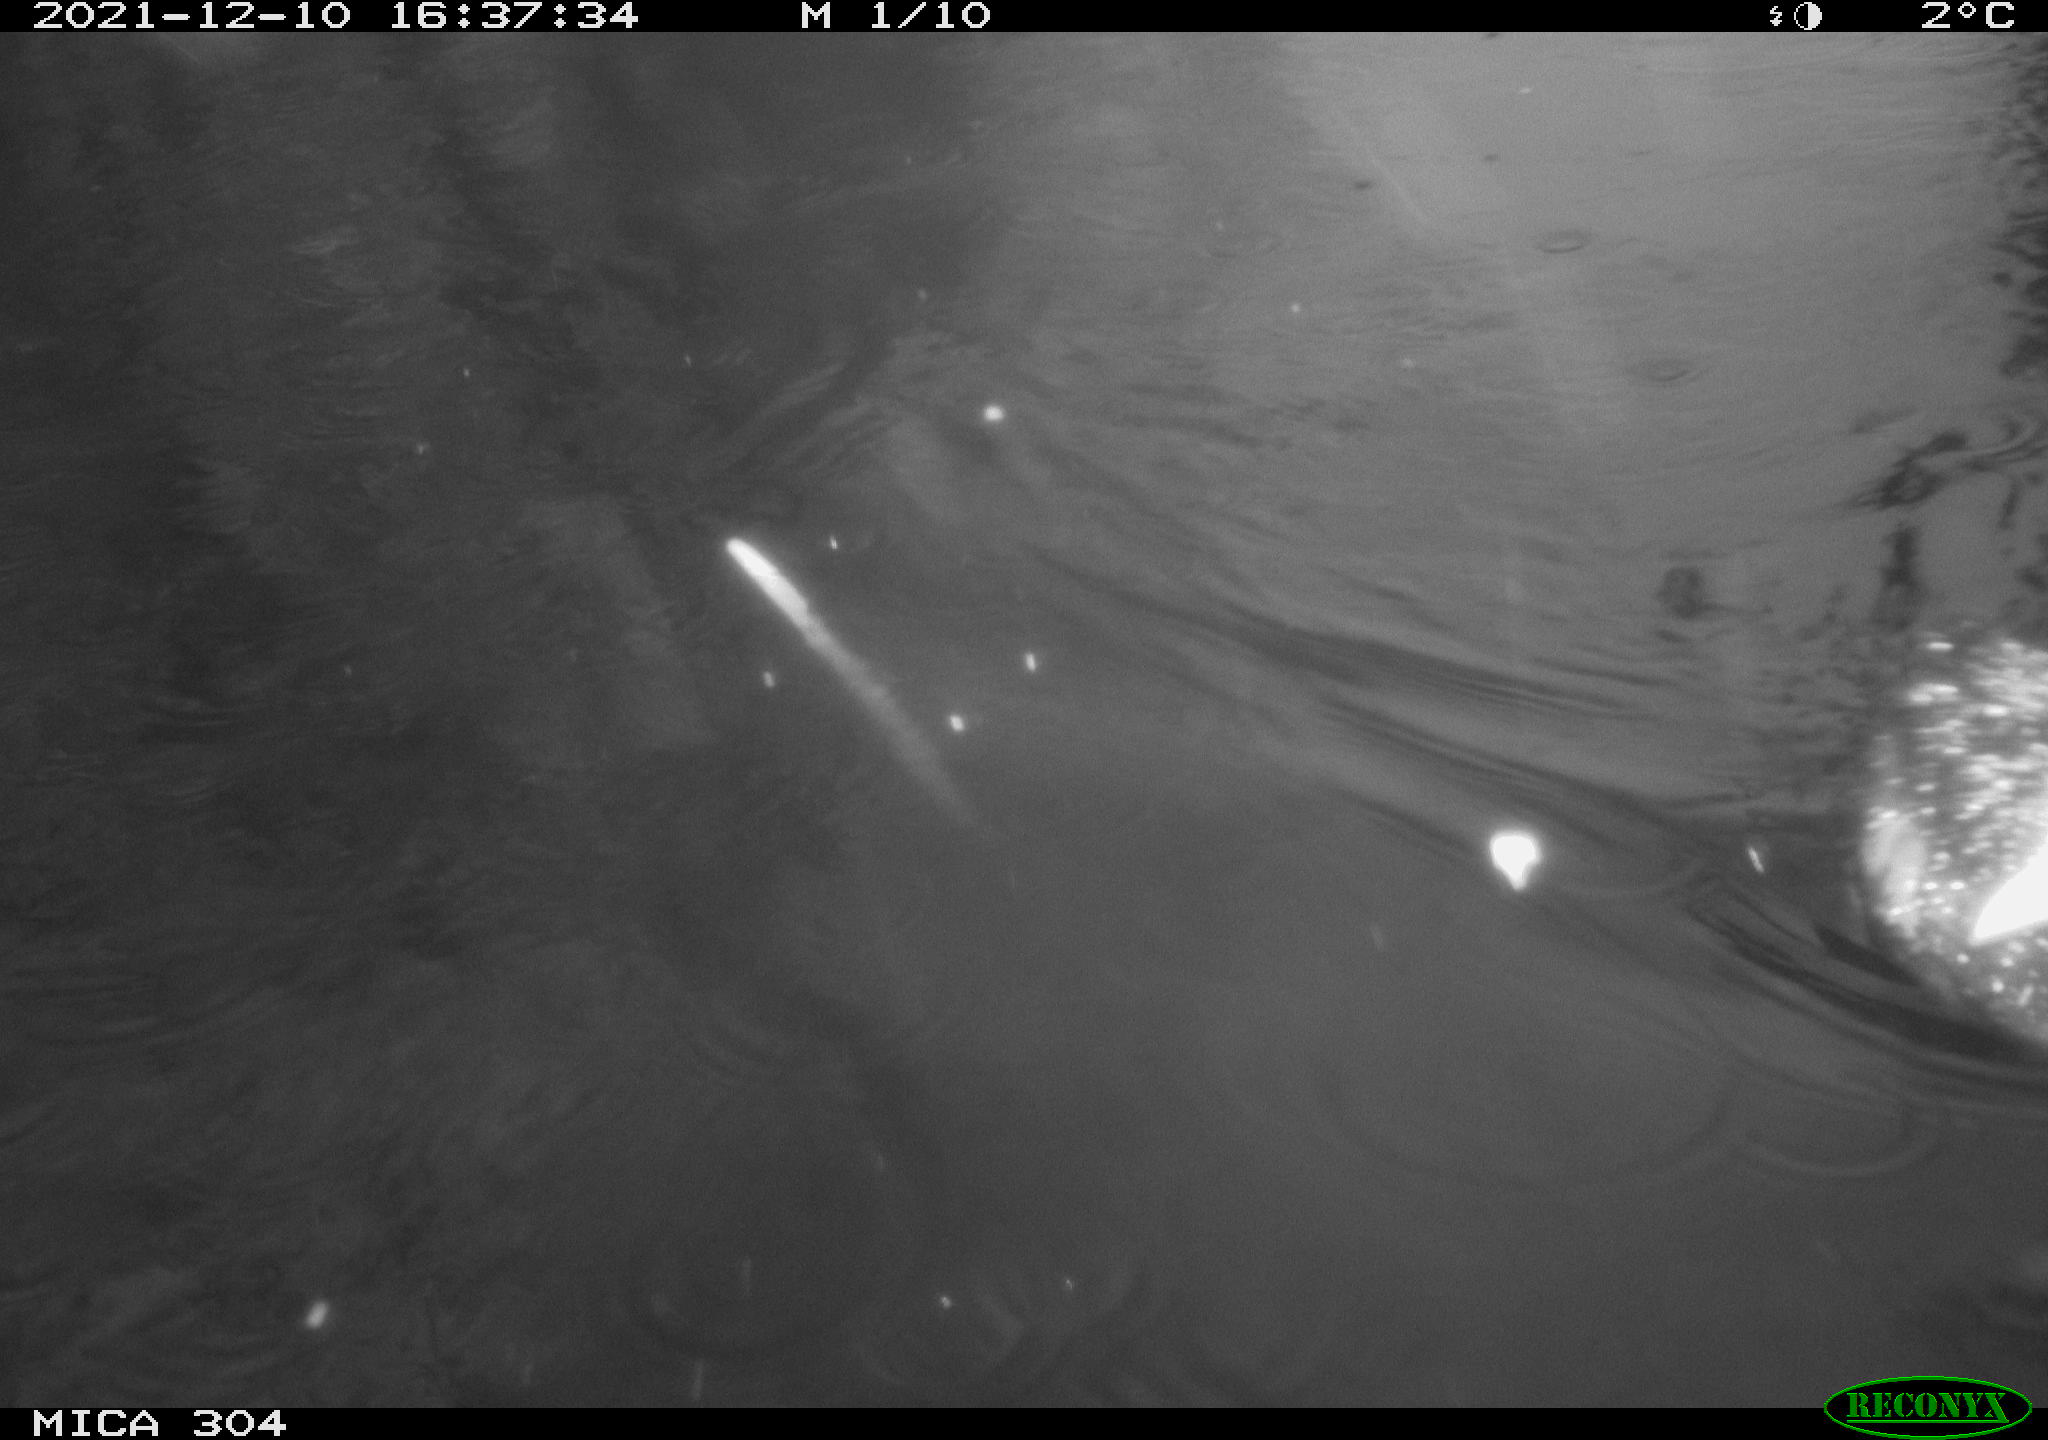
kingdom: Animalia
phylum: Chordata
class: Aves
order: Gruiformes
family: Rallidae
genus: Fulica
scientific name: Fulica atra
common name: Eurasian coot
